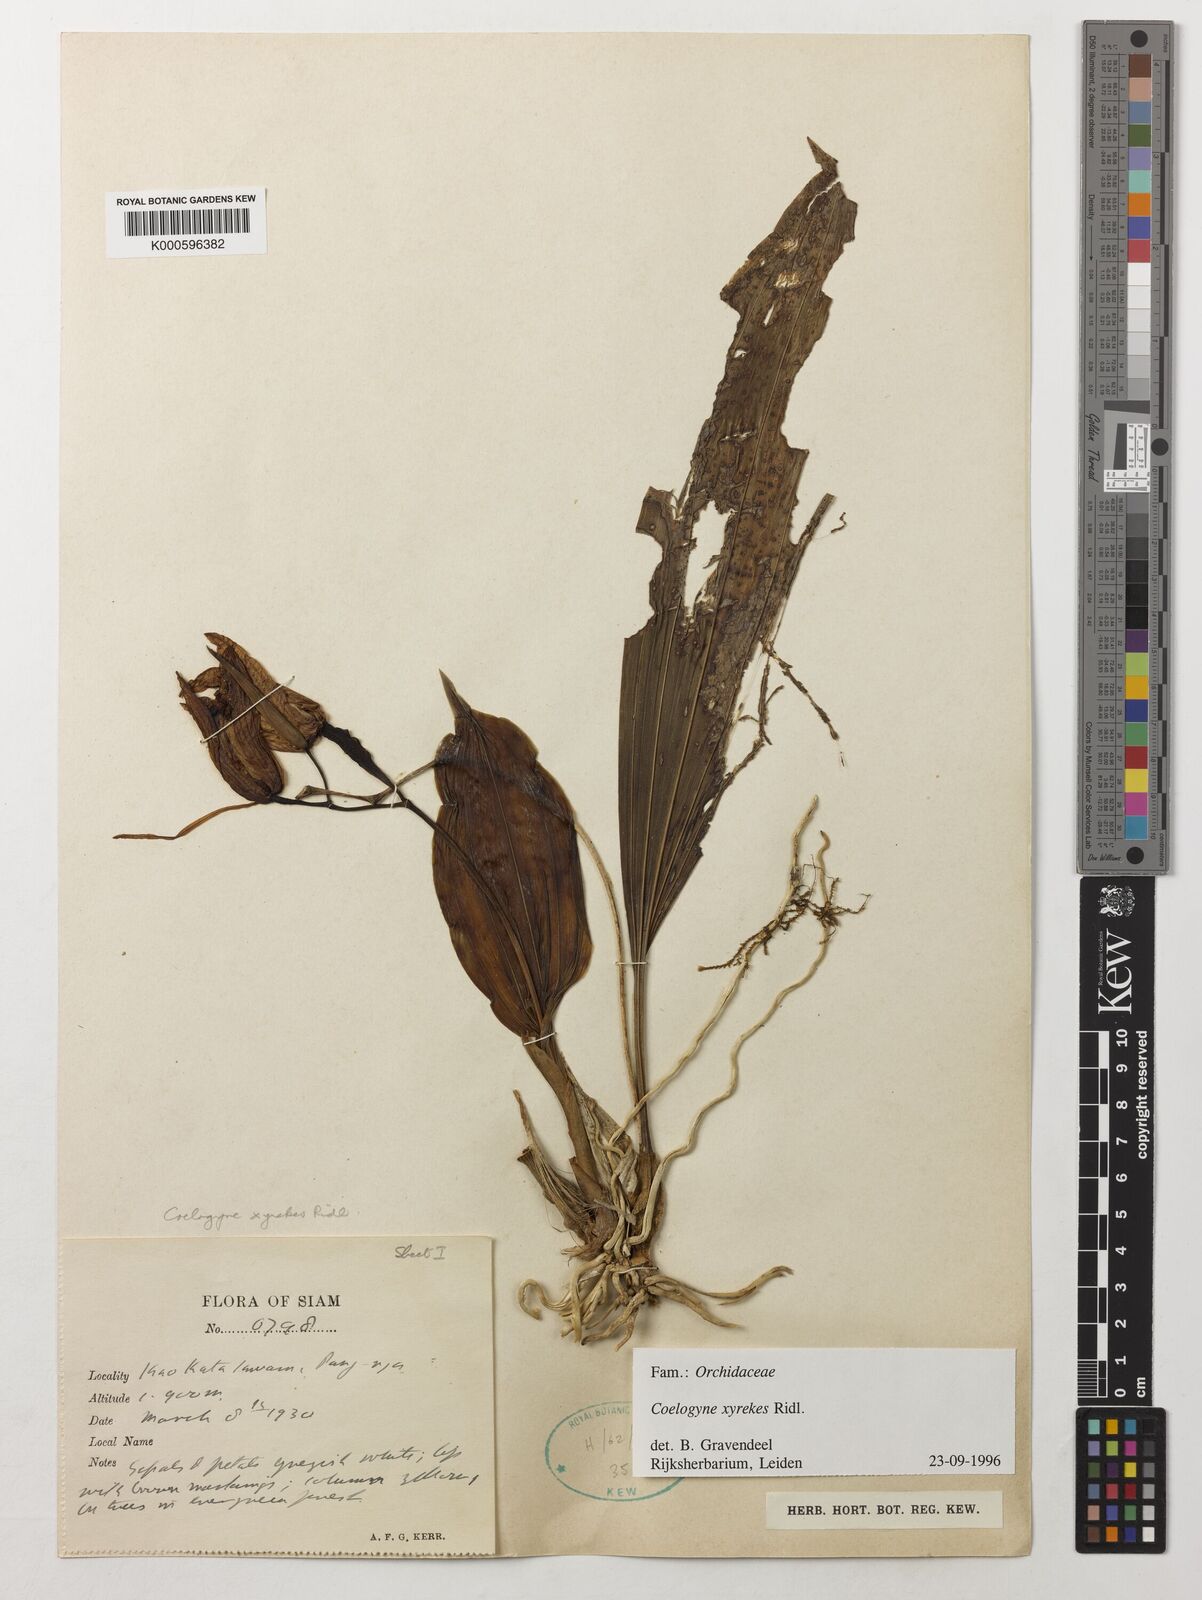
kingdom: Plantae
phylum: Tracheophyta
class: Liliopsida
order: Asparagales
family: Orchidaceae
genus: Coelogyne
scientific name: Coelogyne xyrekes
